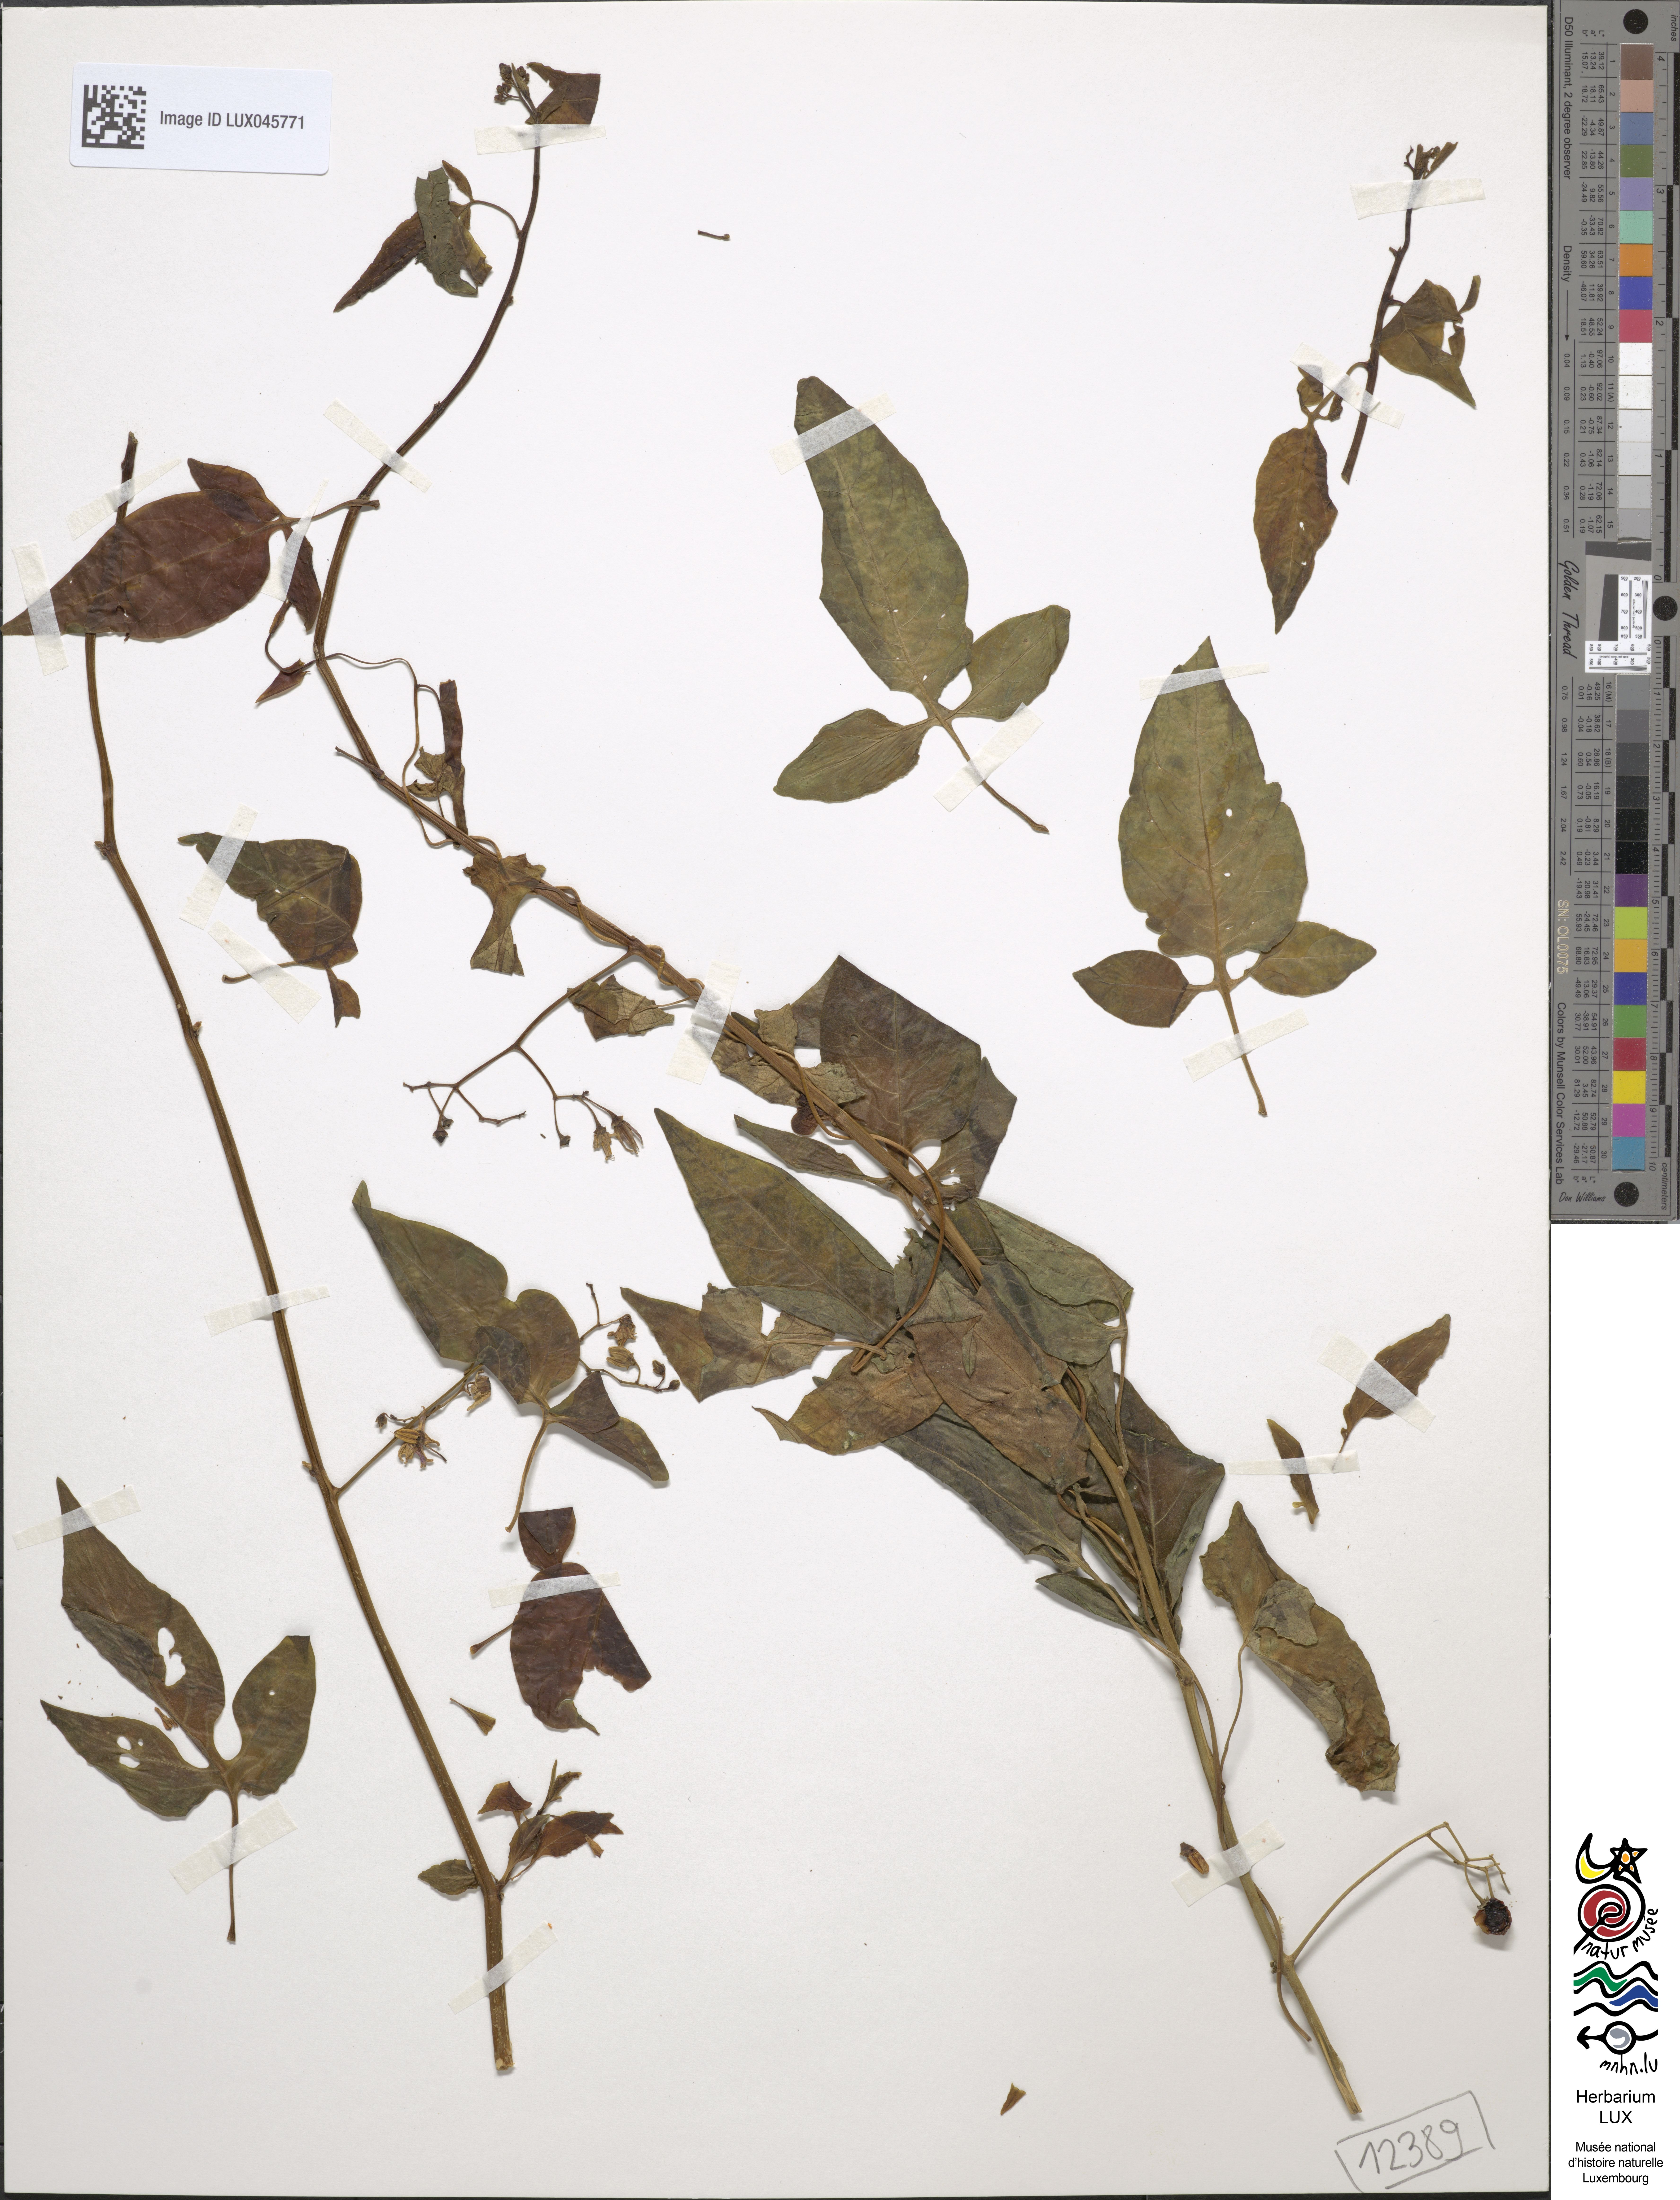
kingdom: Plantae
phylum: Tracheophyta
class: Magnoliopsida
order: Solanales
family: Solanaceae
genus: Solanum
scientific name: Solanum dulcamara
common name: Climbing nightshade
